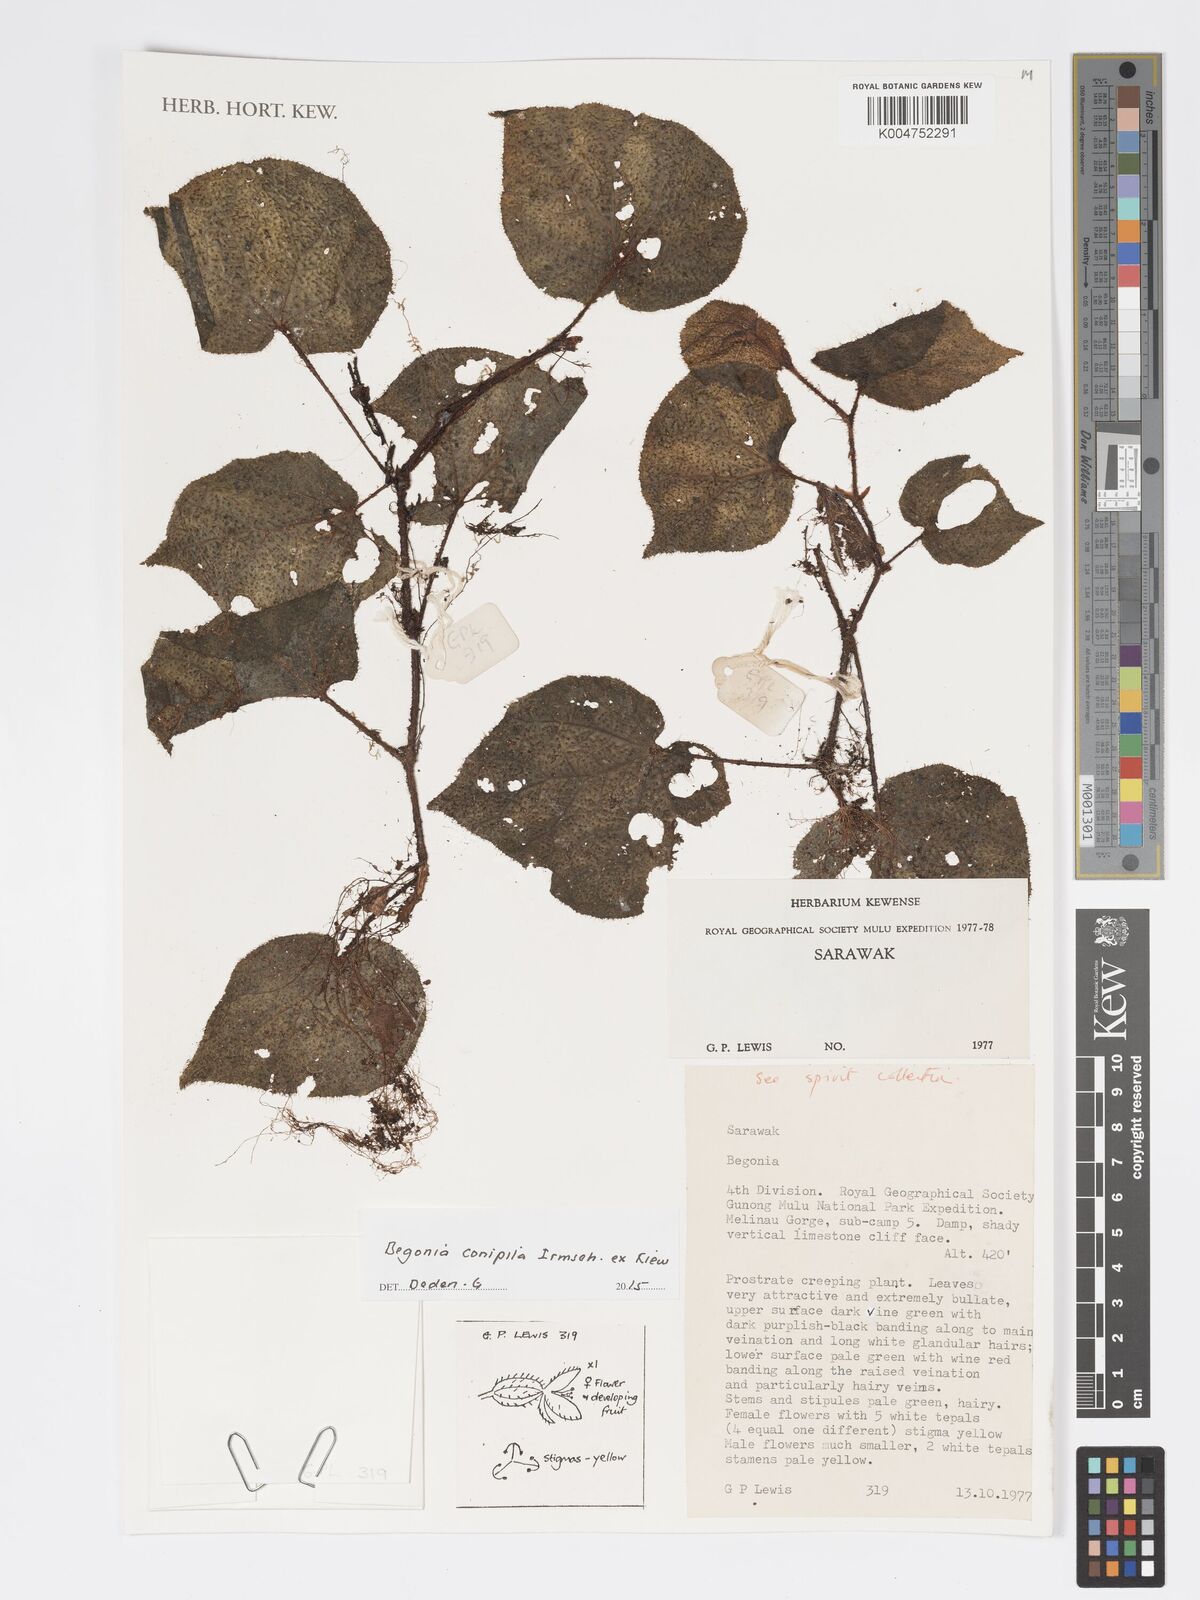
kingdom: Plantae
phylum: Tracheophyta
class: Magnoliopsida
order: Cucurbitales
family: Begoniaceae
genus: Begonia
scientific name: Begonia conipila
